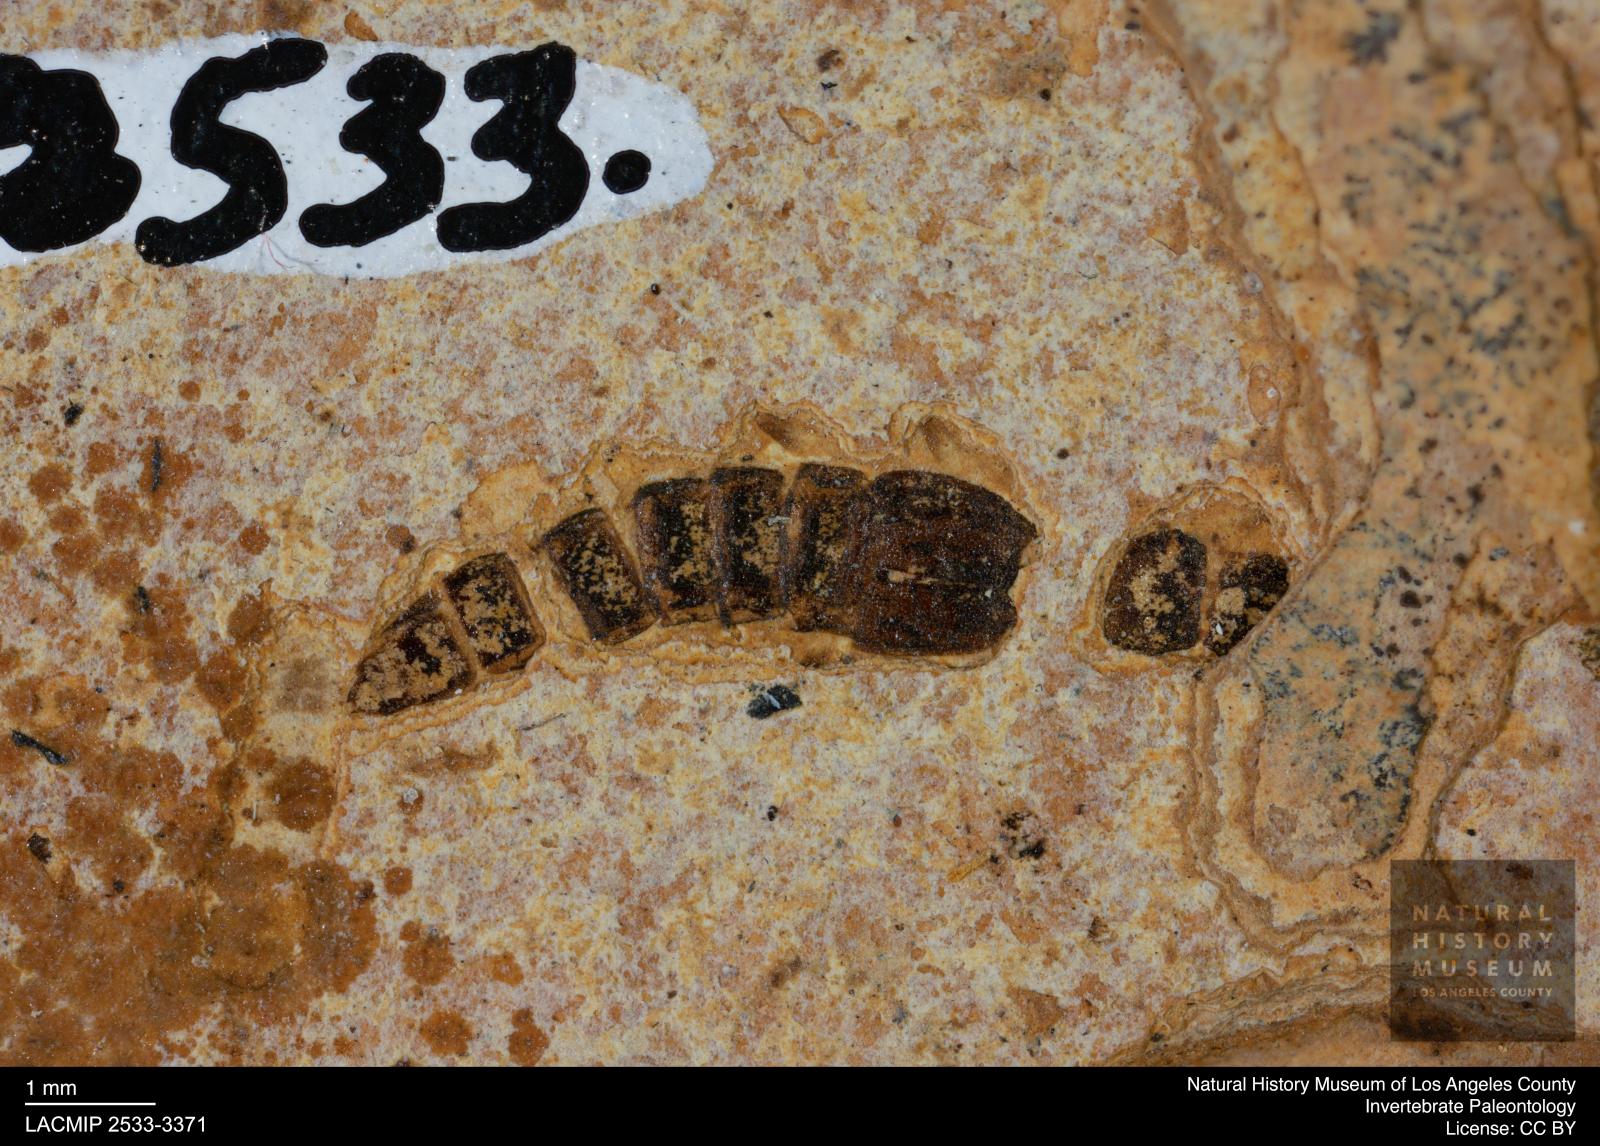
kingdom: Animalia
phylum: Arthropoda
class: Insecta
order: Coleoptera
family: Staphylinidae
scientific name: Staphylinidae
